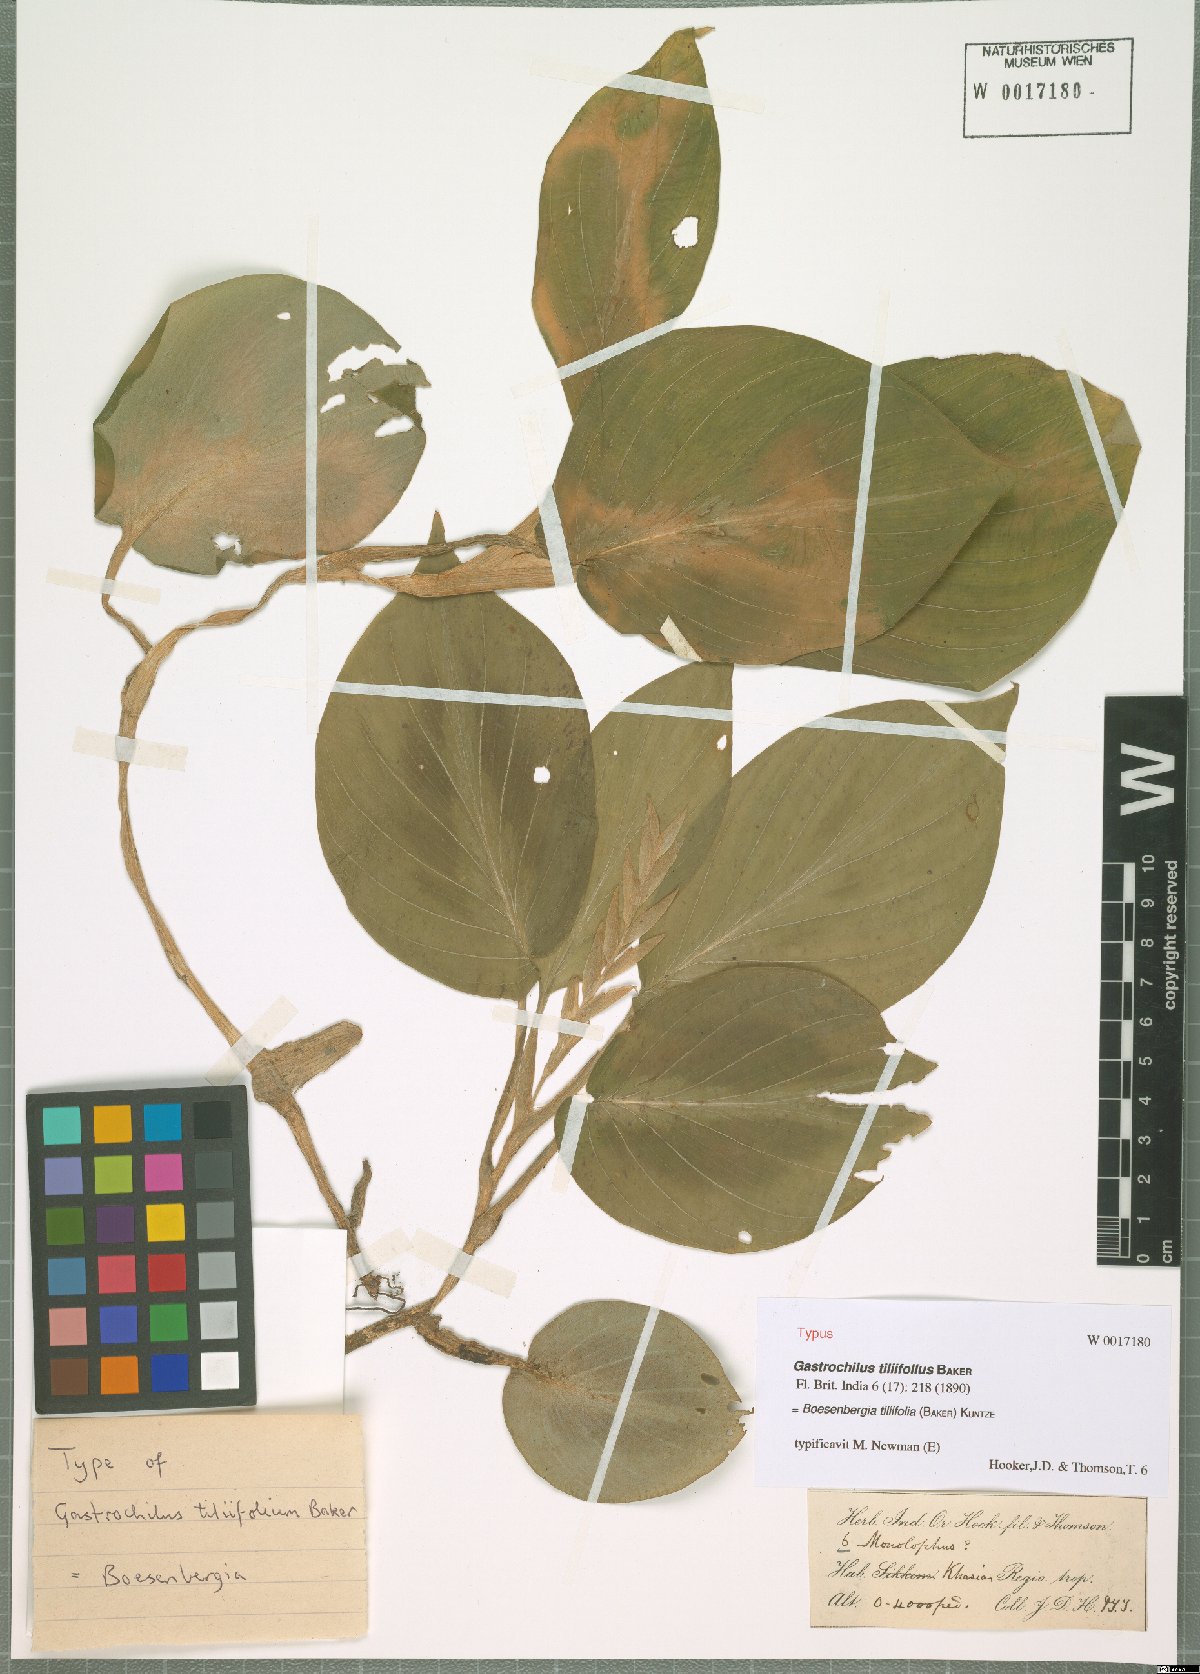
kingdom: Plantae
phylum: Tracheophyta
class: Liliopsida
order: Zingiberales
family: Zingiberaceae
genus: Boesenbergia
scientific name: Boesenbergia tiliifolia
